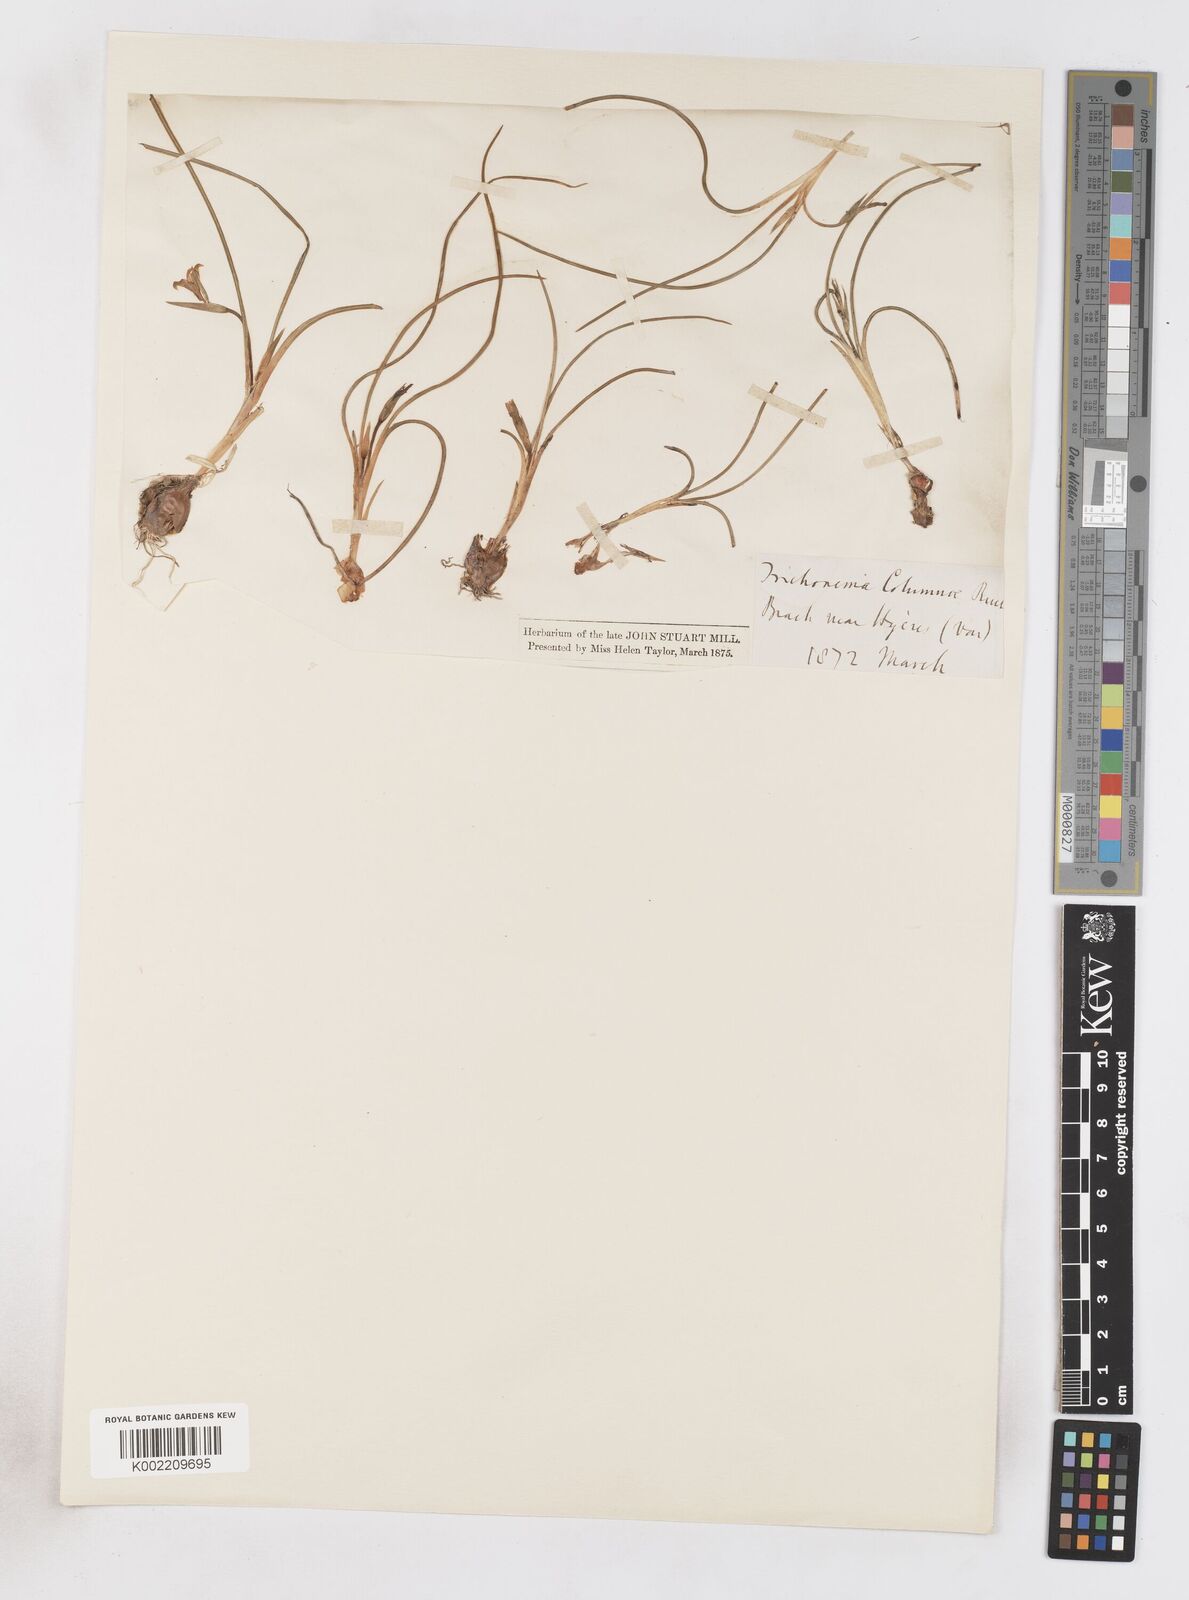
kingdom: Plantae
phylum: Tracheophyta
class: Liliopsida
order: Asparagales
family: Iridaceae
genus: Romulea
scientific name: Romulea ramiflora
